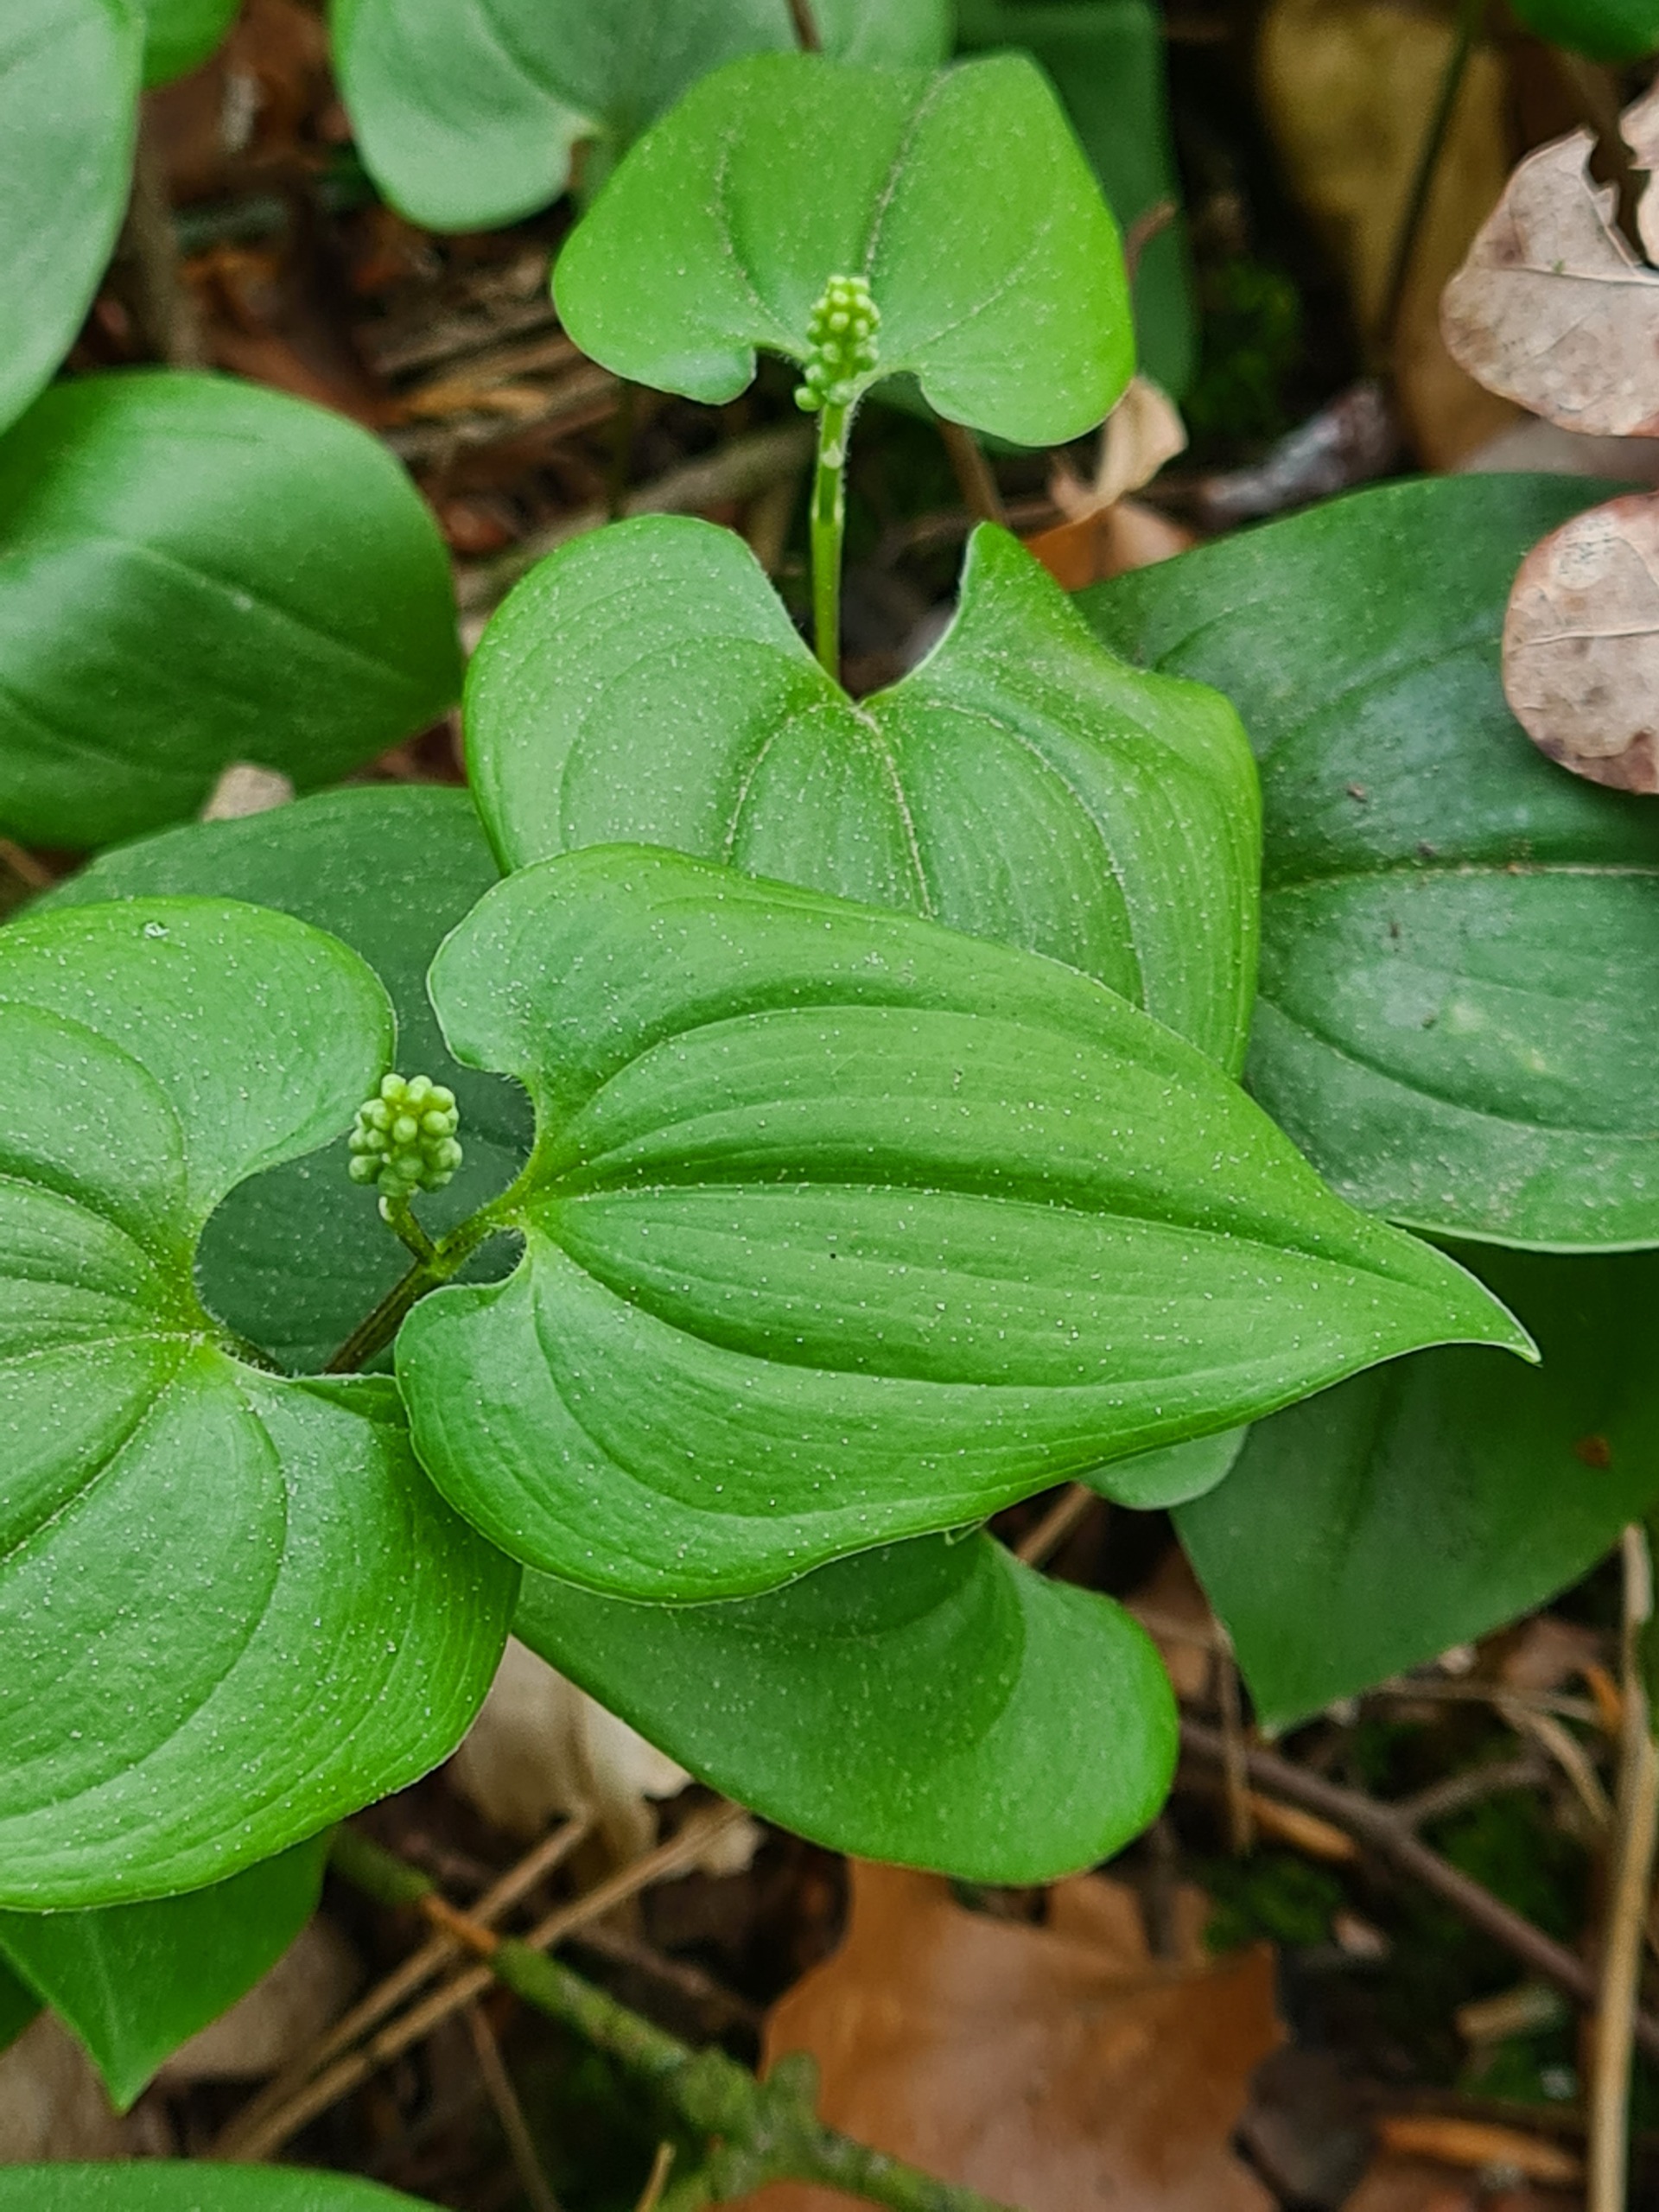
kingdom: Plantae
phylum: Tracheophyta
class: Liliopsida
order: Asparagales
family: Asparagaceae
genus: Maianthemum
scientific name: Maianthemum bifolium
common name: Majblomst
